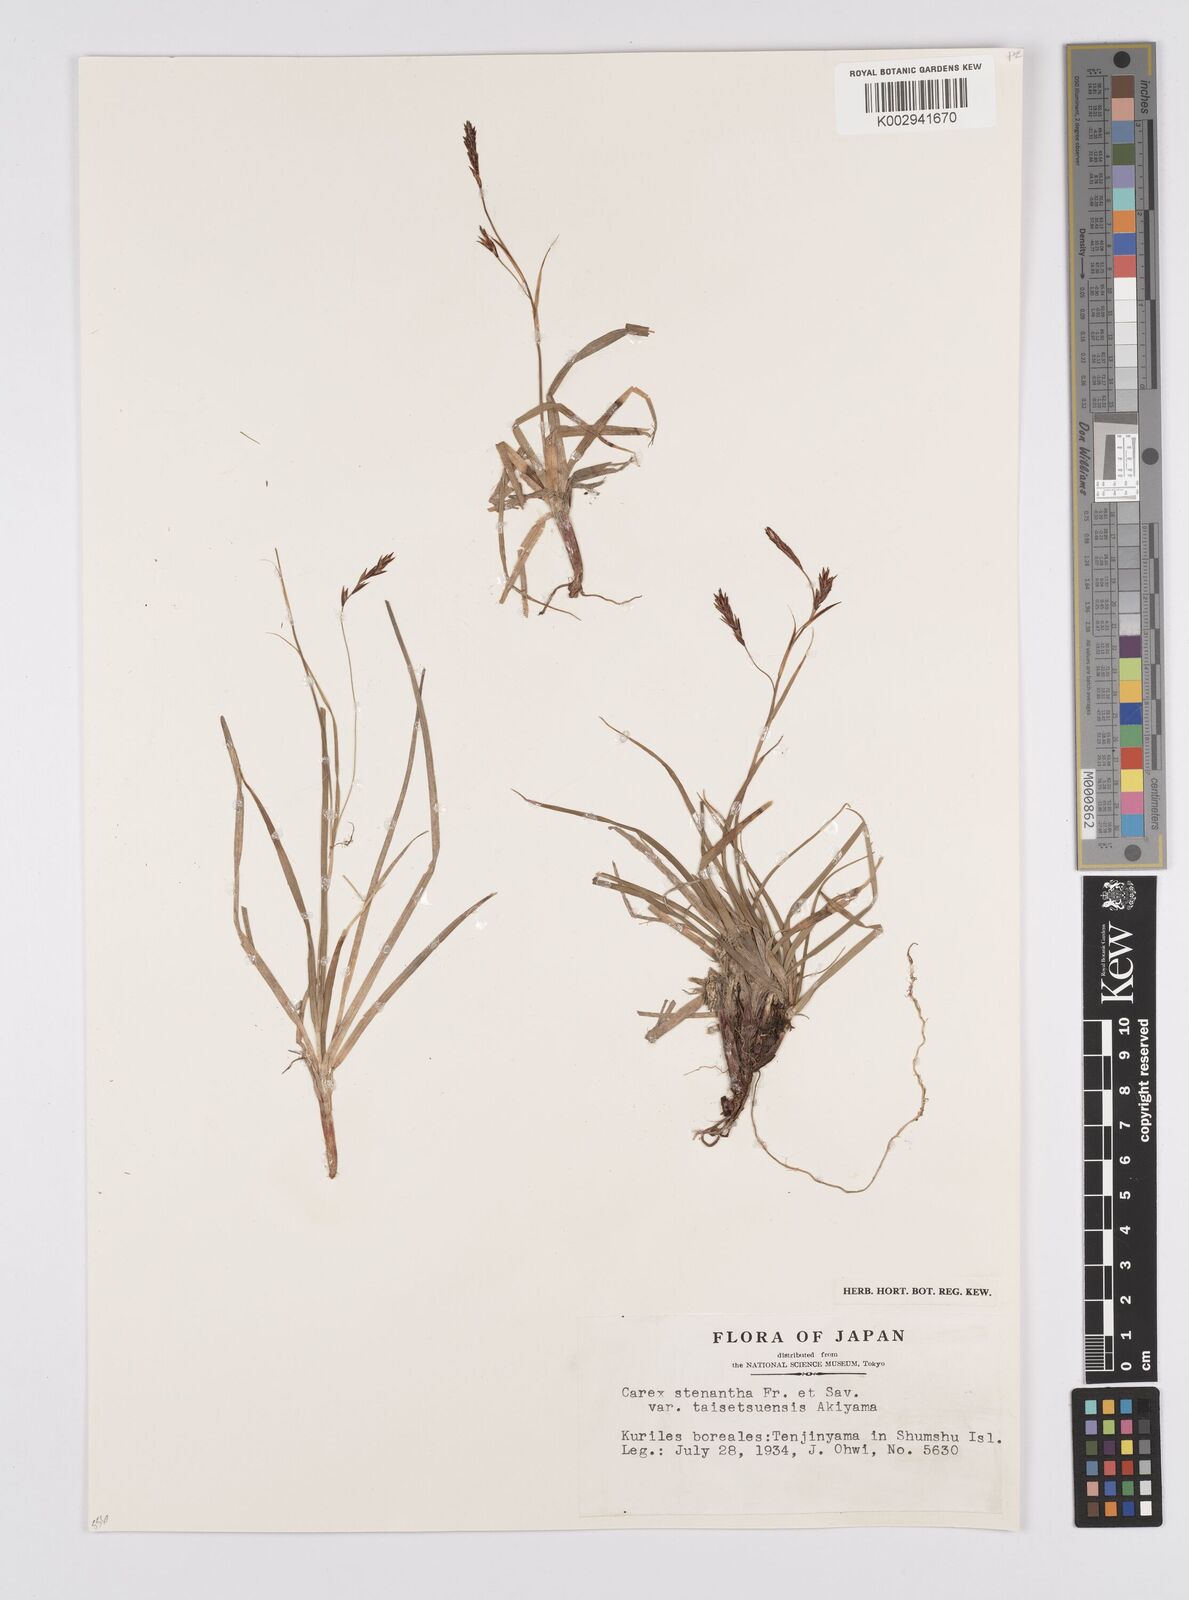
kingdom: Plantae
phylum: Tracheophyta
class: Liliopsida
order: Poales
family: Cyperaceae
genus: Carex
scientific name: Carex stenantha
